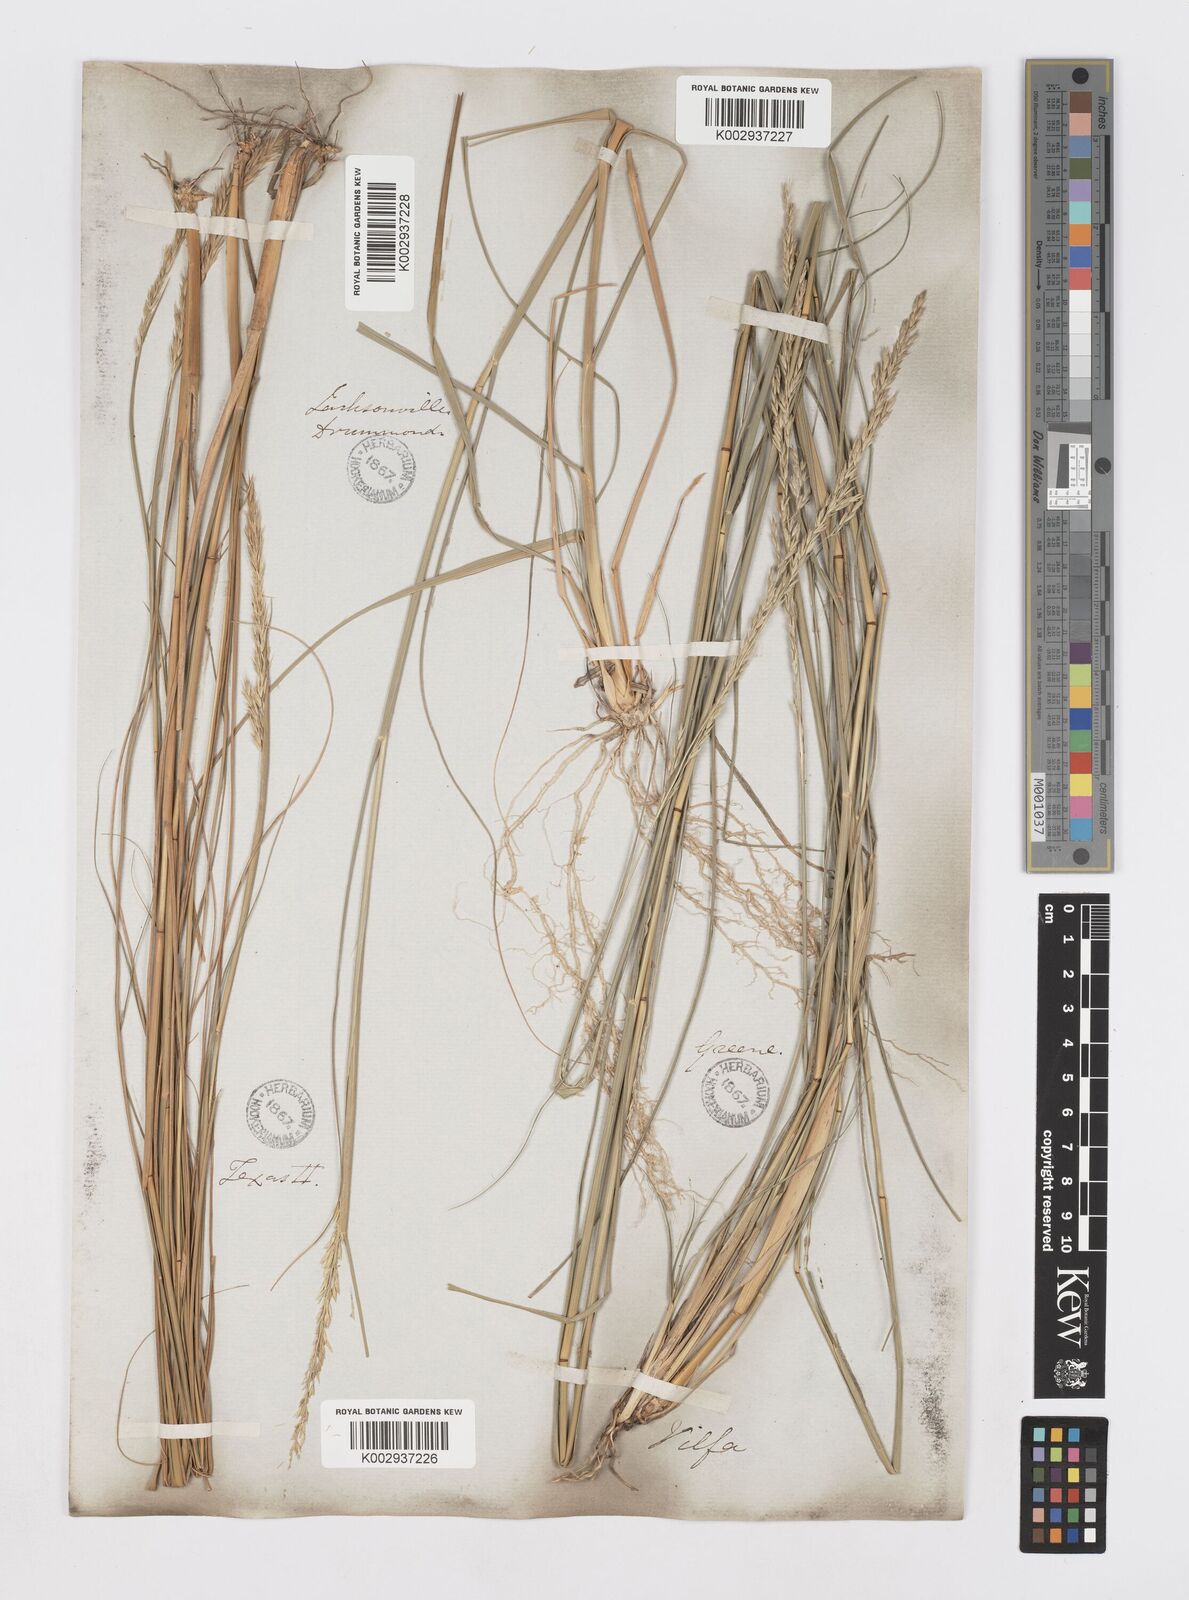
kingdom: Plantae
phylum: Tracheophyta
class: Liliopsida
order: Poales
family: Poaceae
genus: Sporobolus
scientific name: Sporobolus clandestinus
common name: Hidden dropseed
